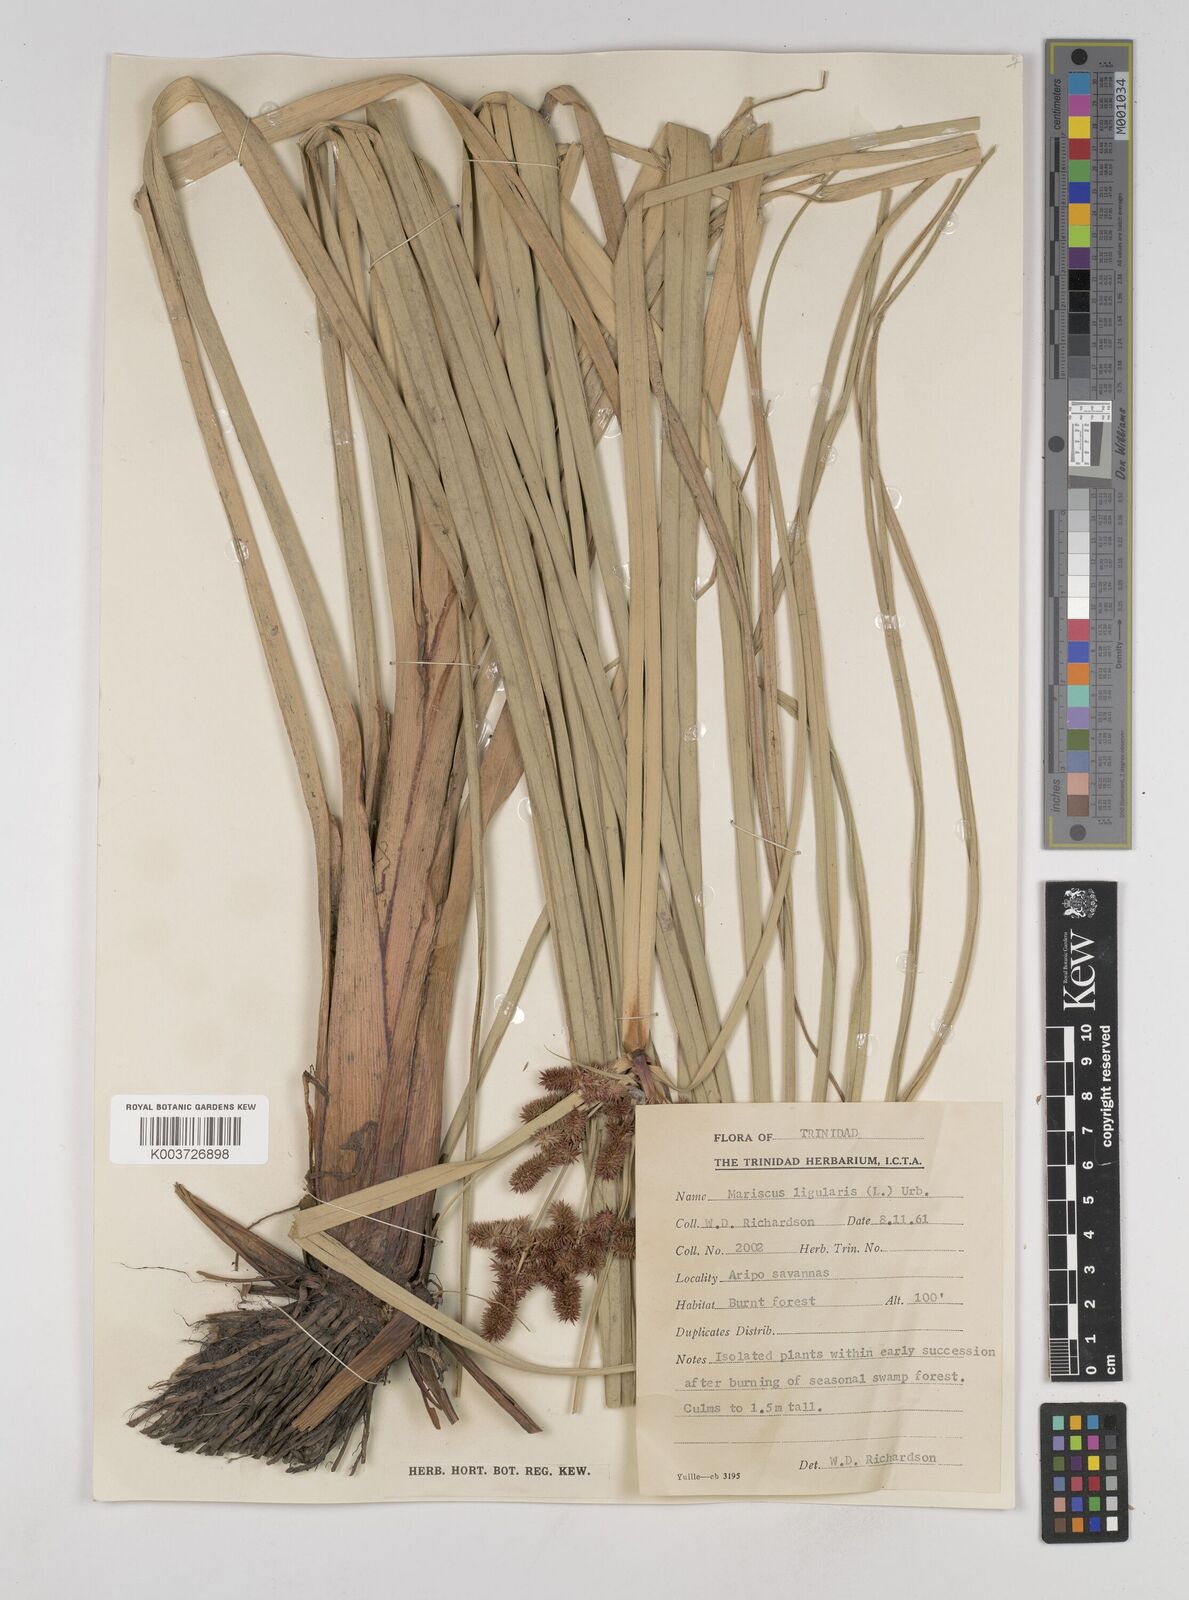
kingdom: Plantae
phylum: Tracheophyta
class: Liliopsida
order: Poales
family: Cyperaceae
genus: Cyperus
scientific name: Cyperus ligularis
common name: Swamp flat sedge
